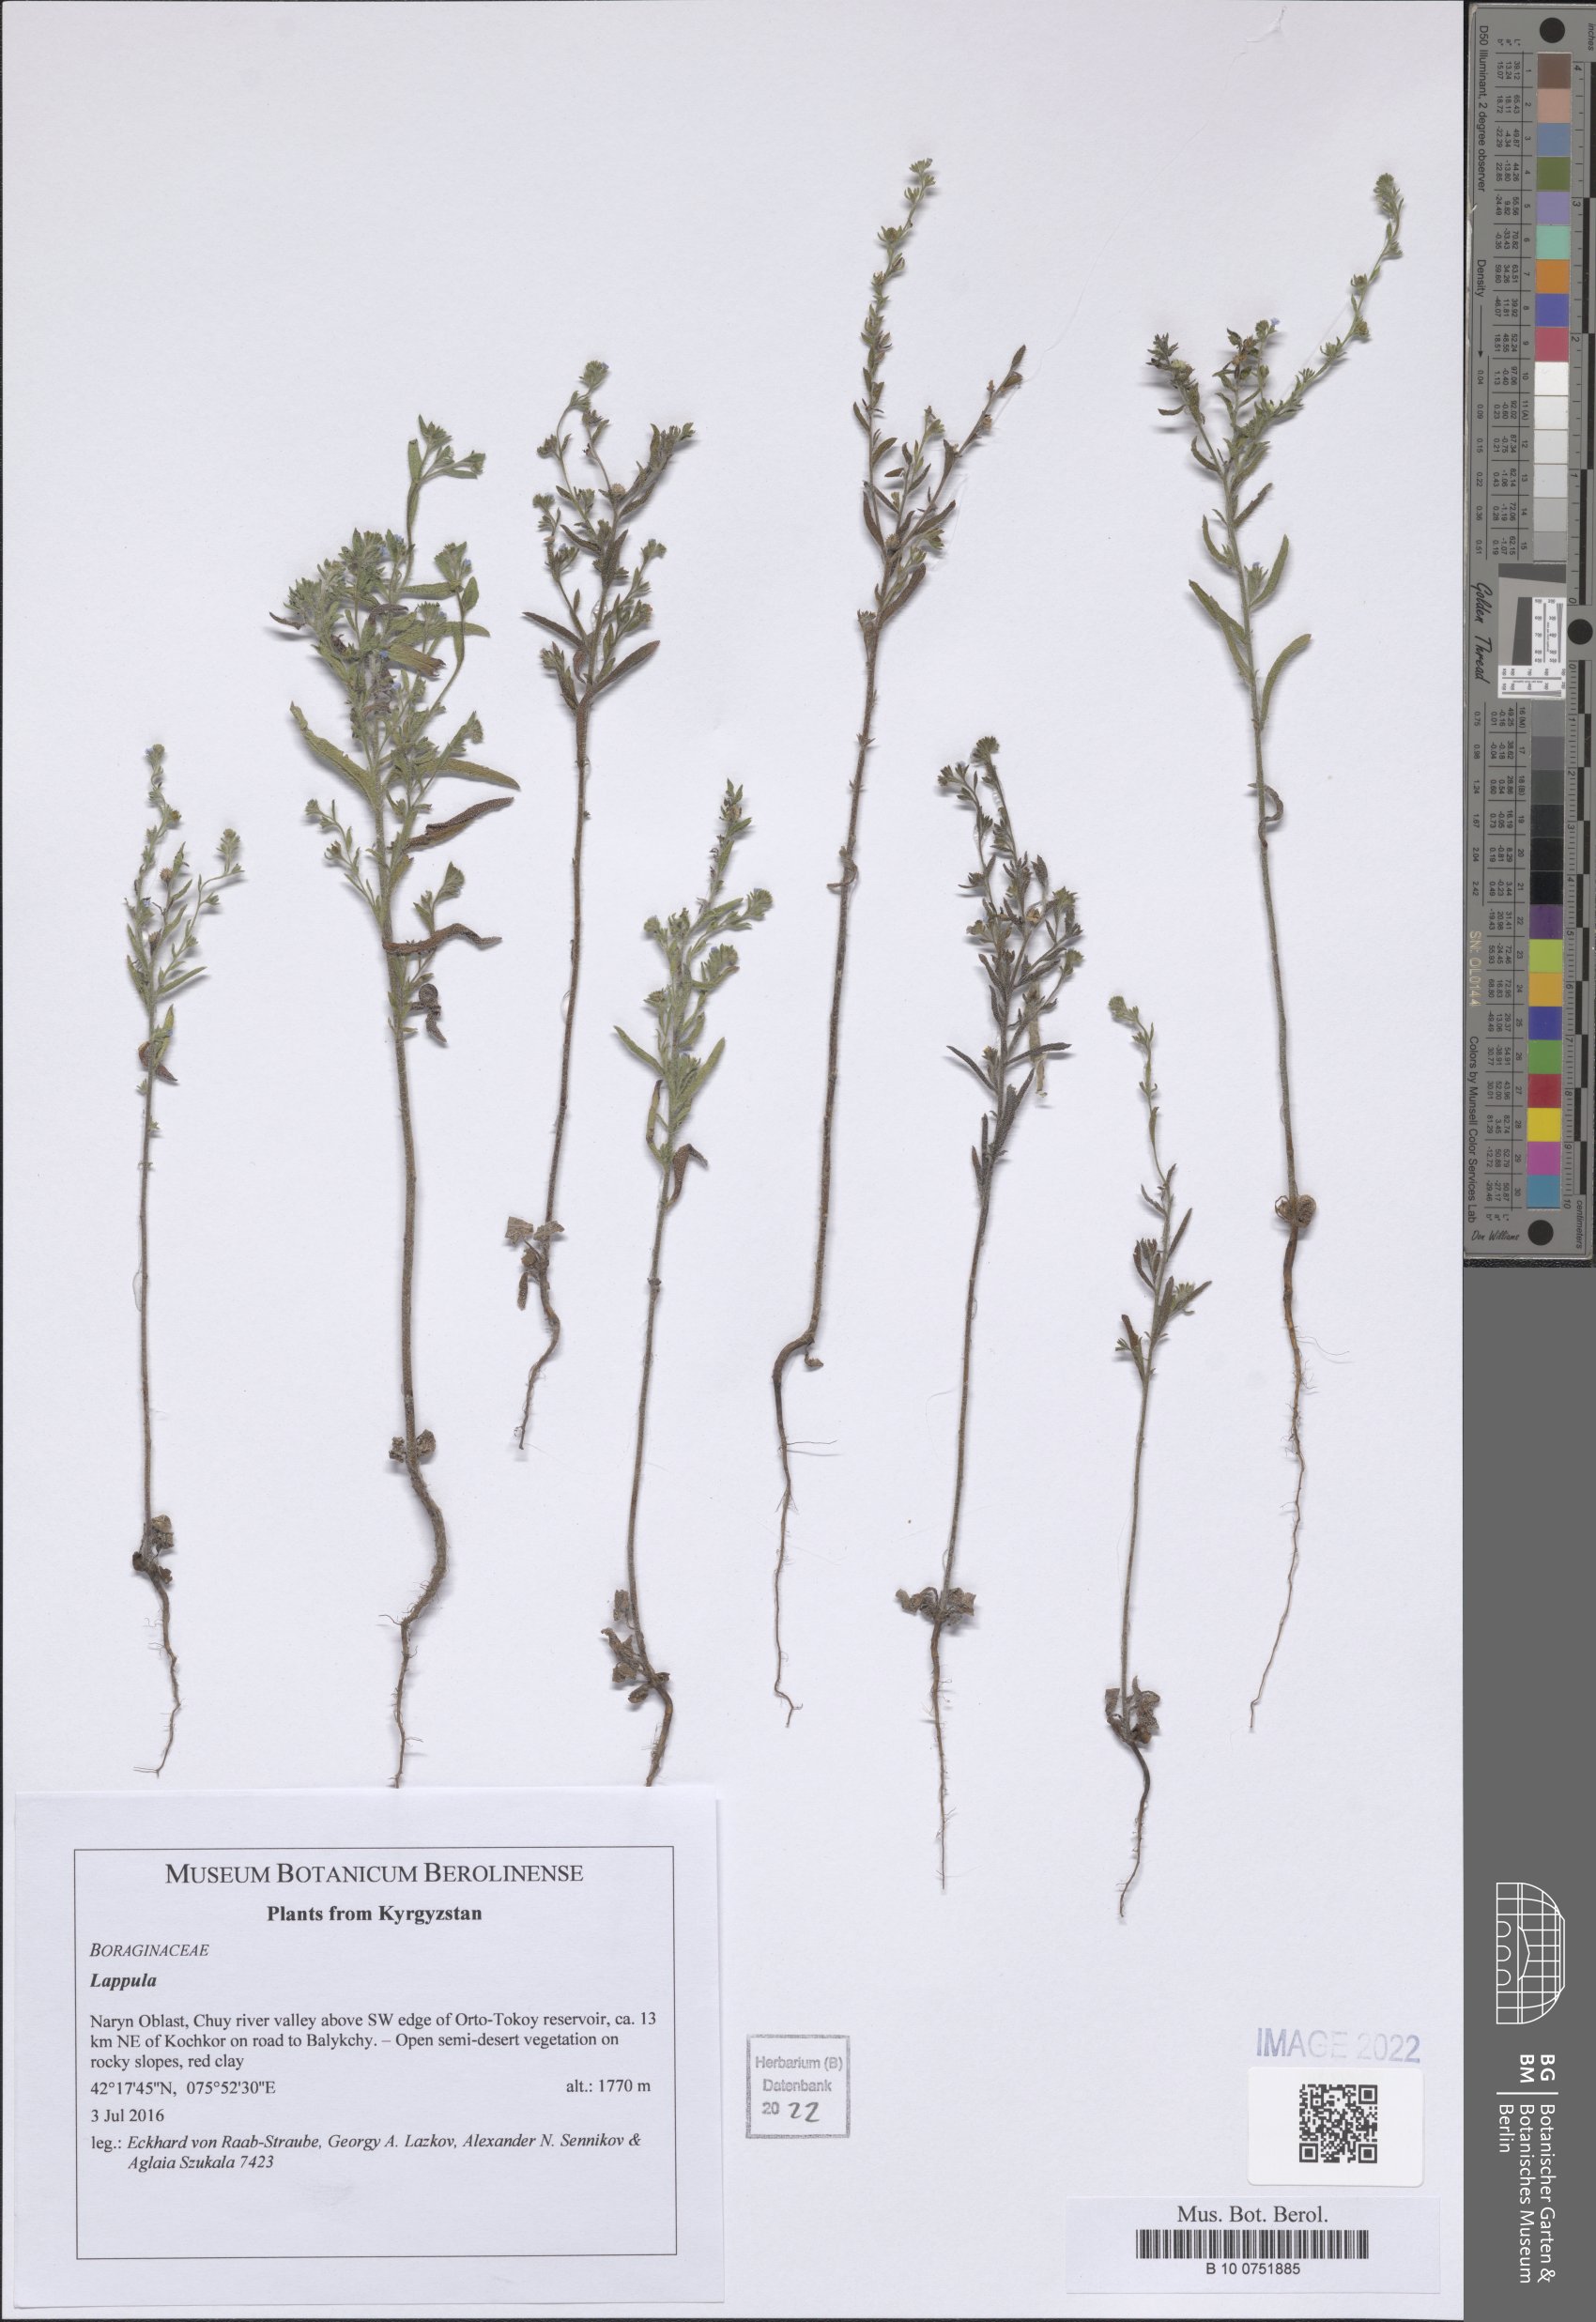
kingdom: Plantae
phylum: Tracheophyta
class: Magnoliopsida
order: Boraginales
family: Boraginaceae
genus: Lappula
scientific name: Lappula
